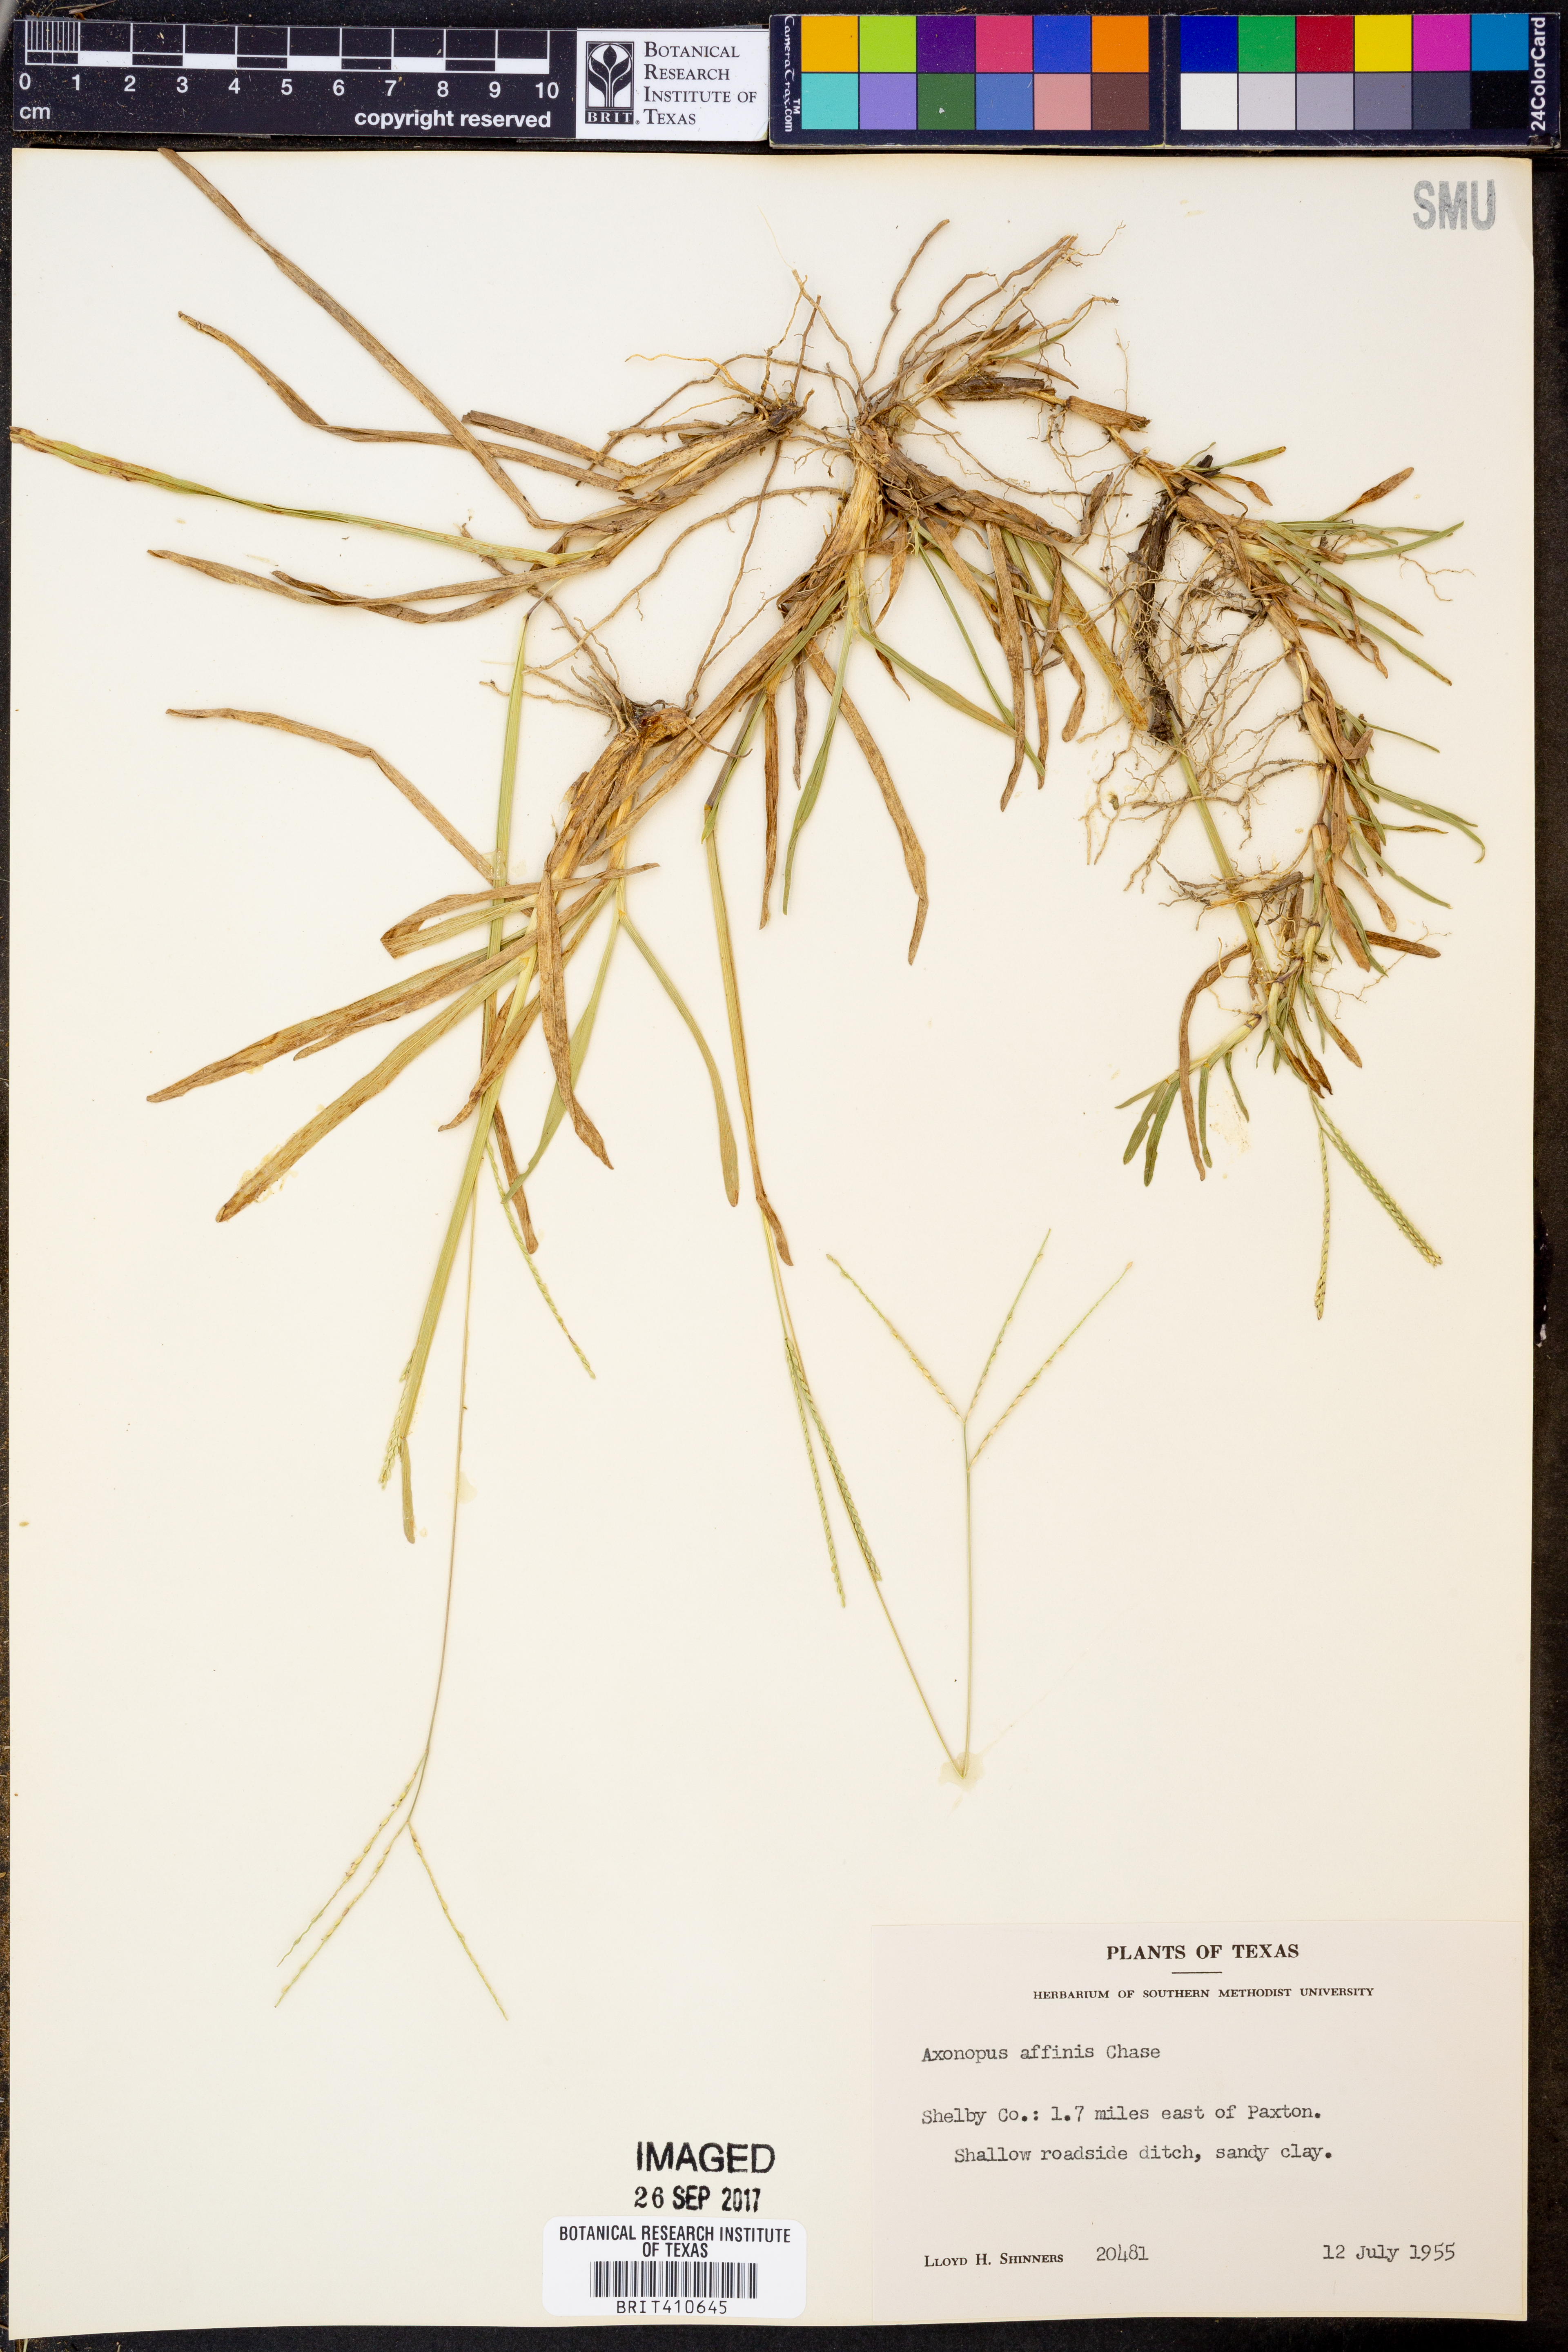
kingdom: Plantae
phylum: Tracheophyta
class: Liliopsida
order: Poales
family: Poaceae
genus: Axonopus
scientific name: Axonopus fissifolius
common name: Common carpetgrass
